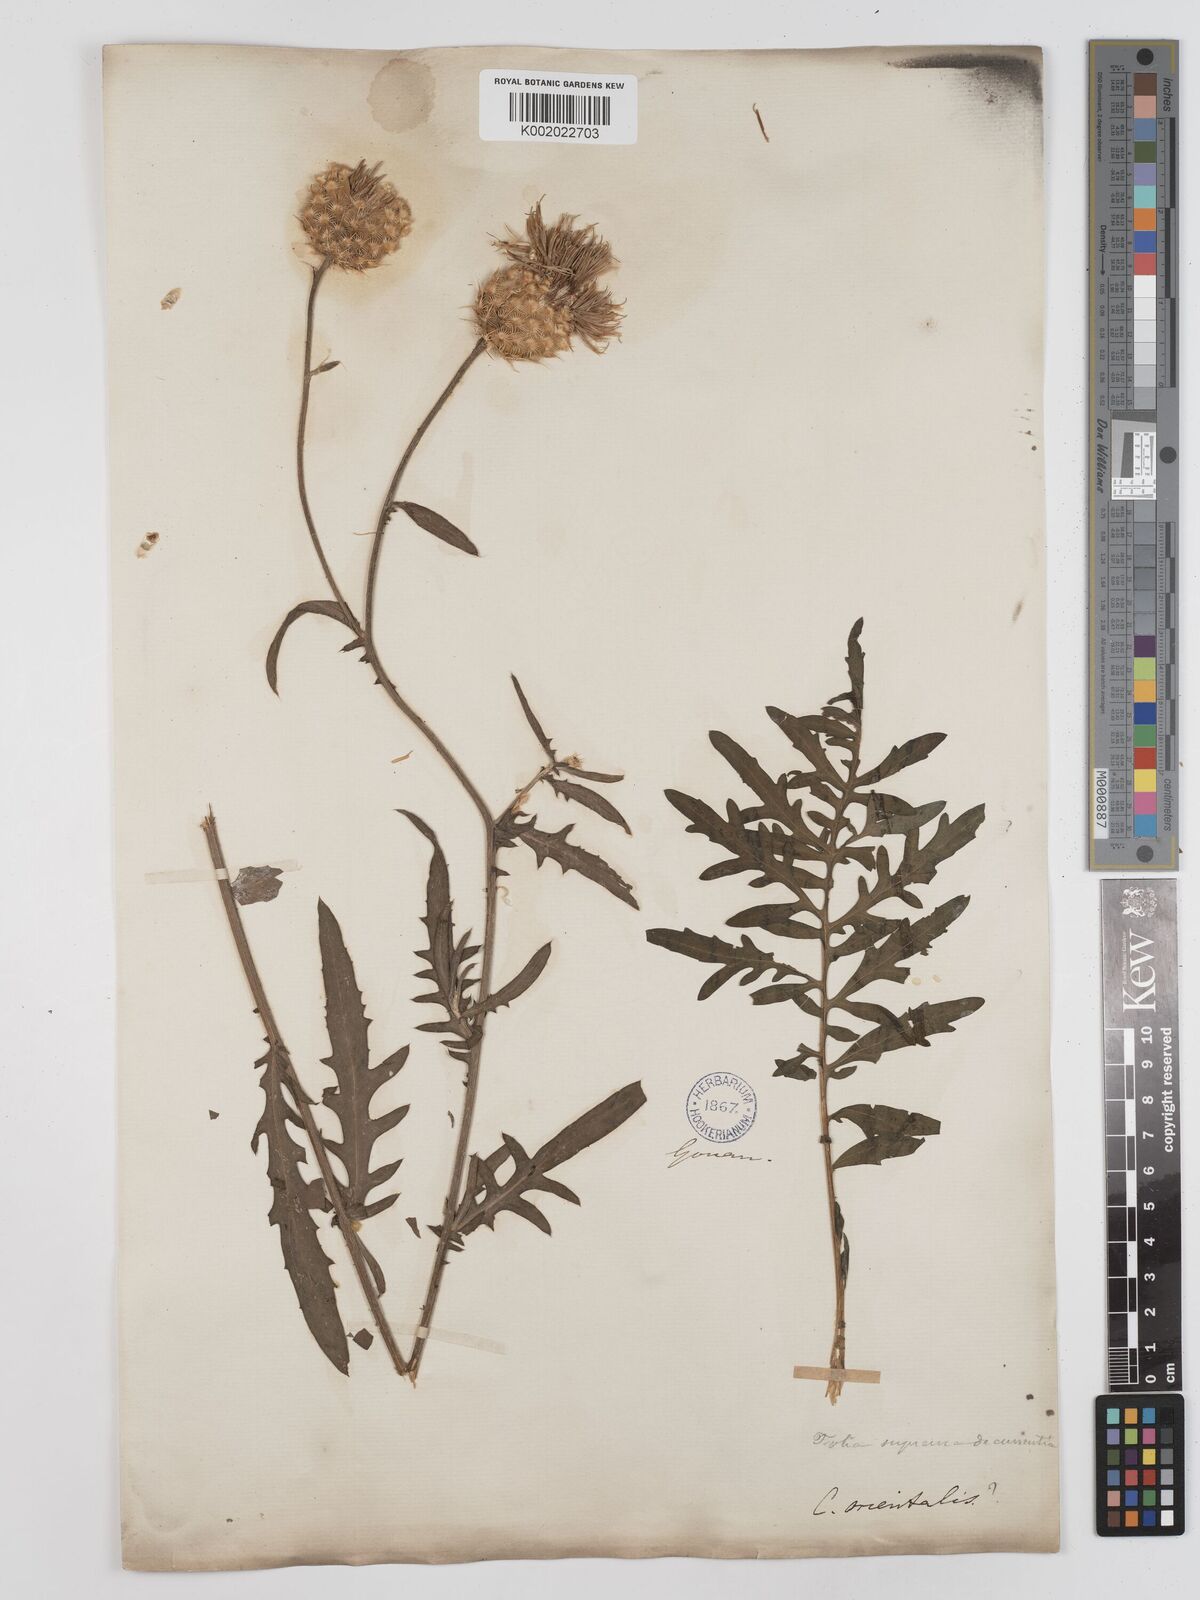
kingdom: Plantae
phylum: Tracheophyta
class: Magnoliopsida
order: Asterales
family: Asteraceae
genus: Centaurea
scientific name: Centaurea orientalis
